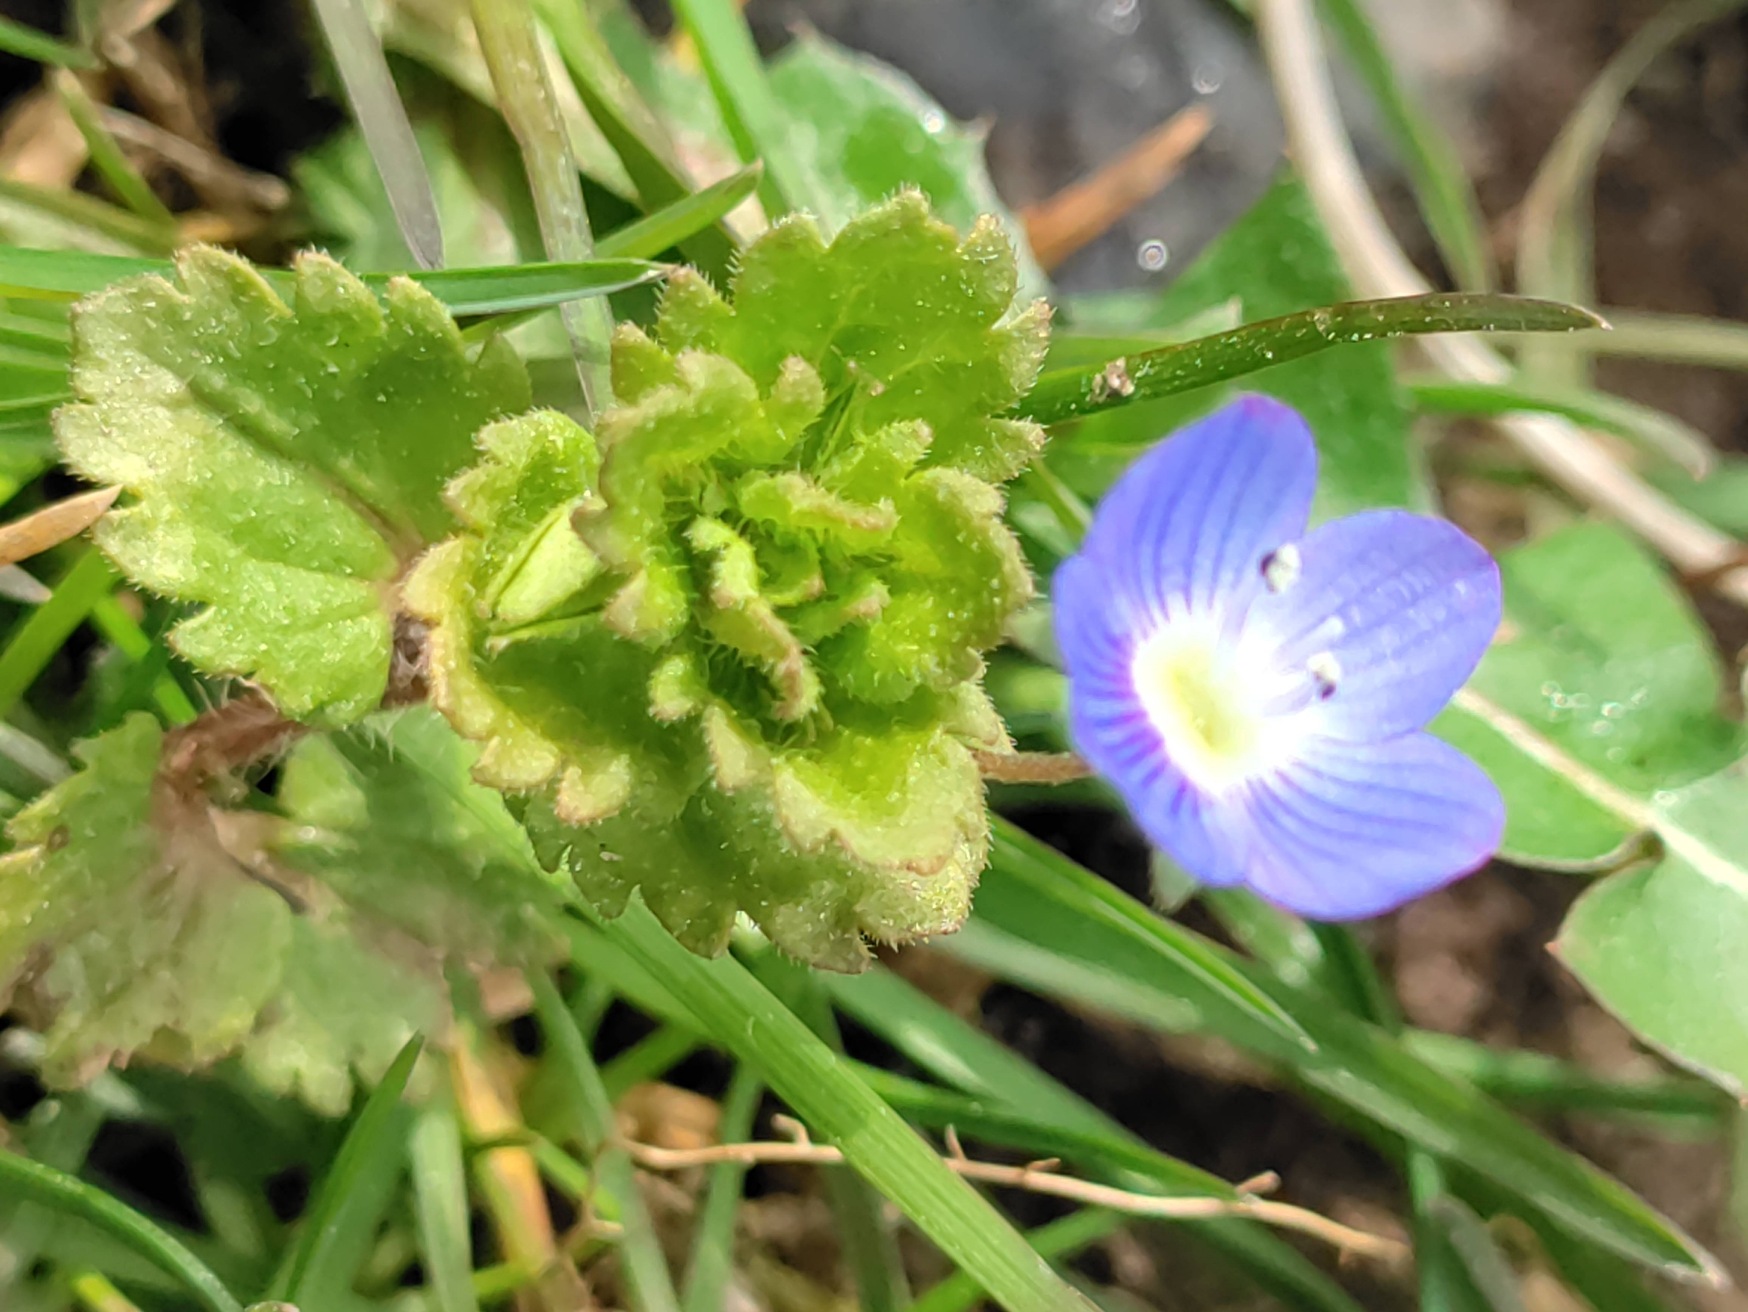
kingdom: Plantae
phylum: Tracheophyta
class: Magnoliopsida
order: Lamiales
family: Plantaginaceae
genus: Veronica
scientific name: Veronica persica
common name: Storkronet ærenpris
